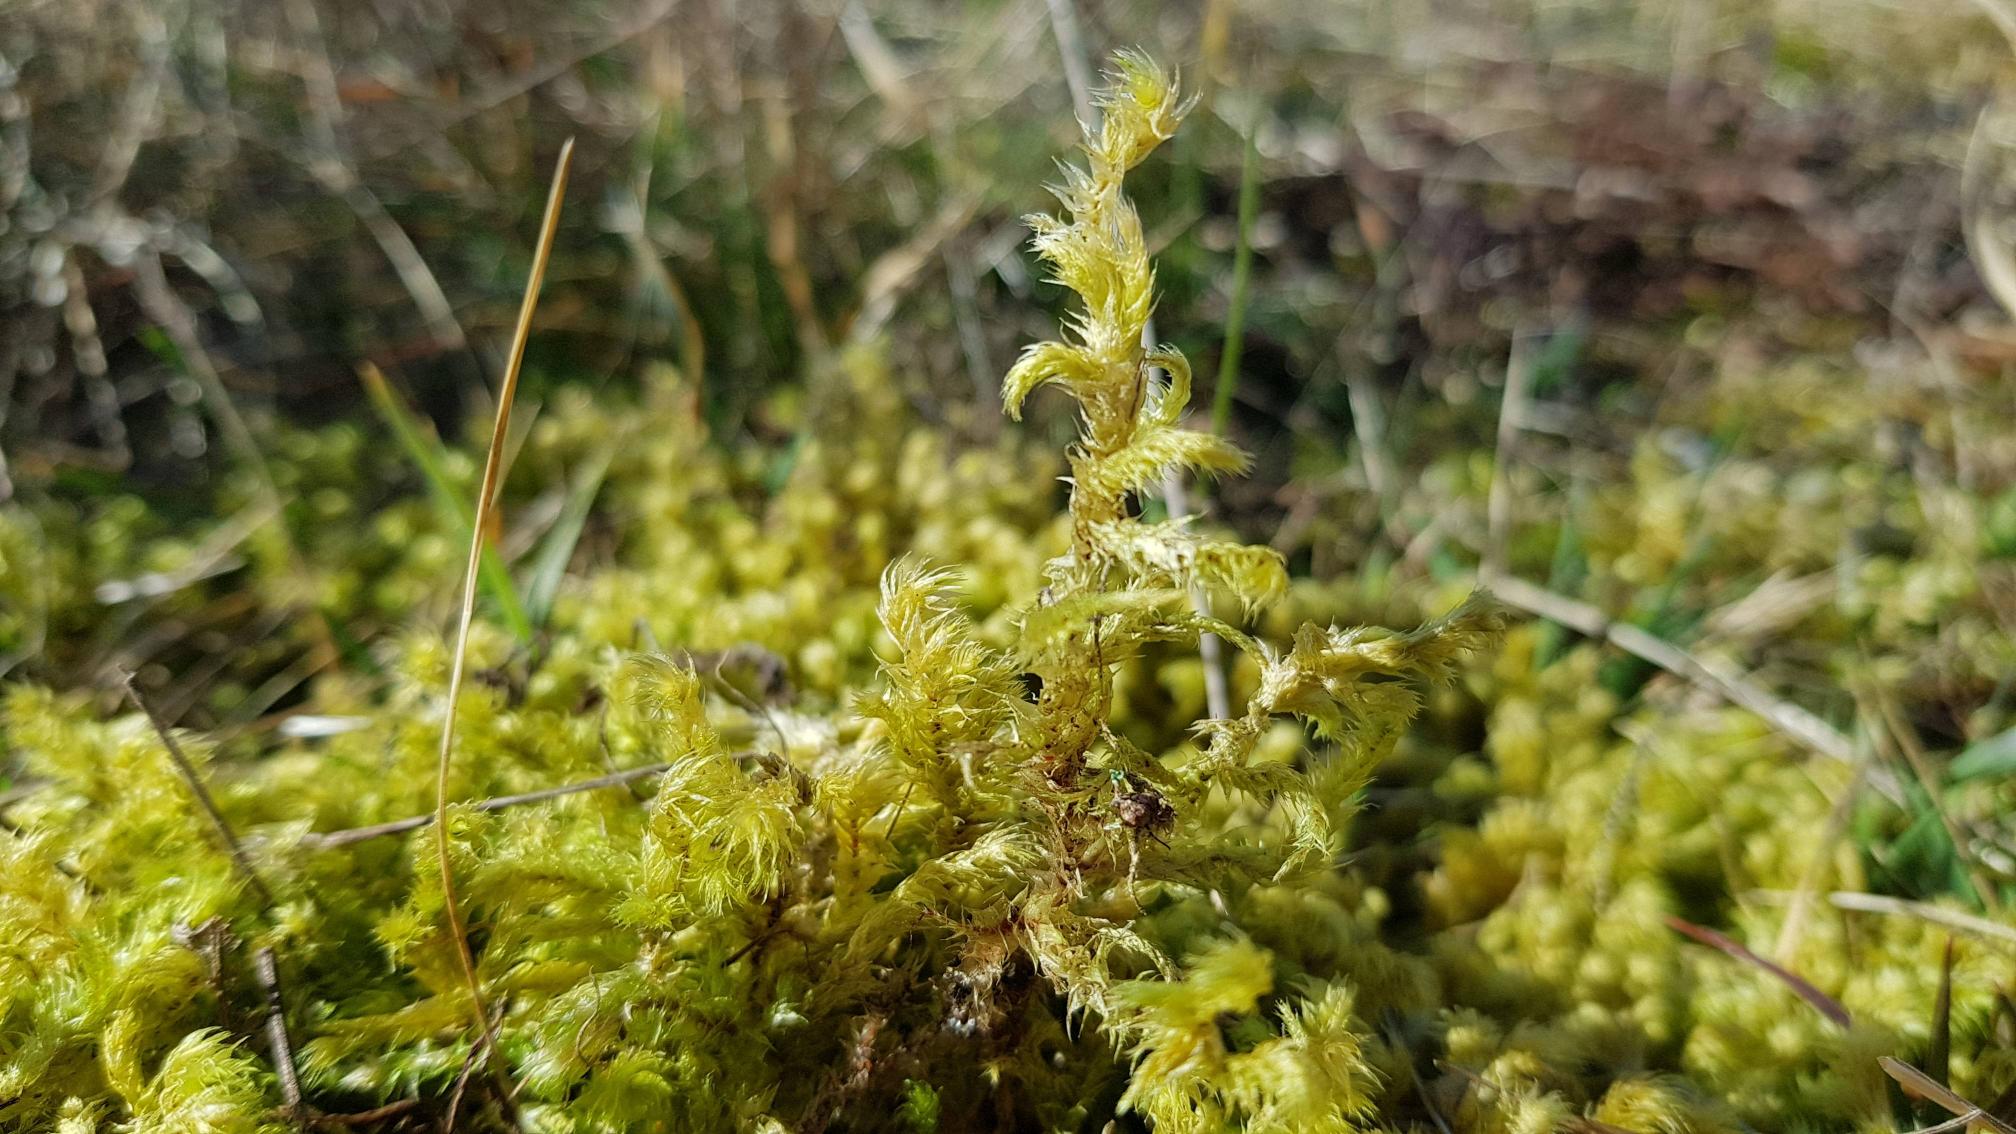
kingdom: Plantae
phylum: Bryophyta
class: Bryopsida
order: Hypnales
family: Hylocomiaceae
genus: Hylocomiadelphus
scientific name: Hylocomiadelphus triquetrus
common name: Stor kransemos
